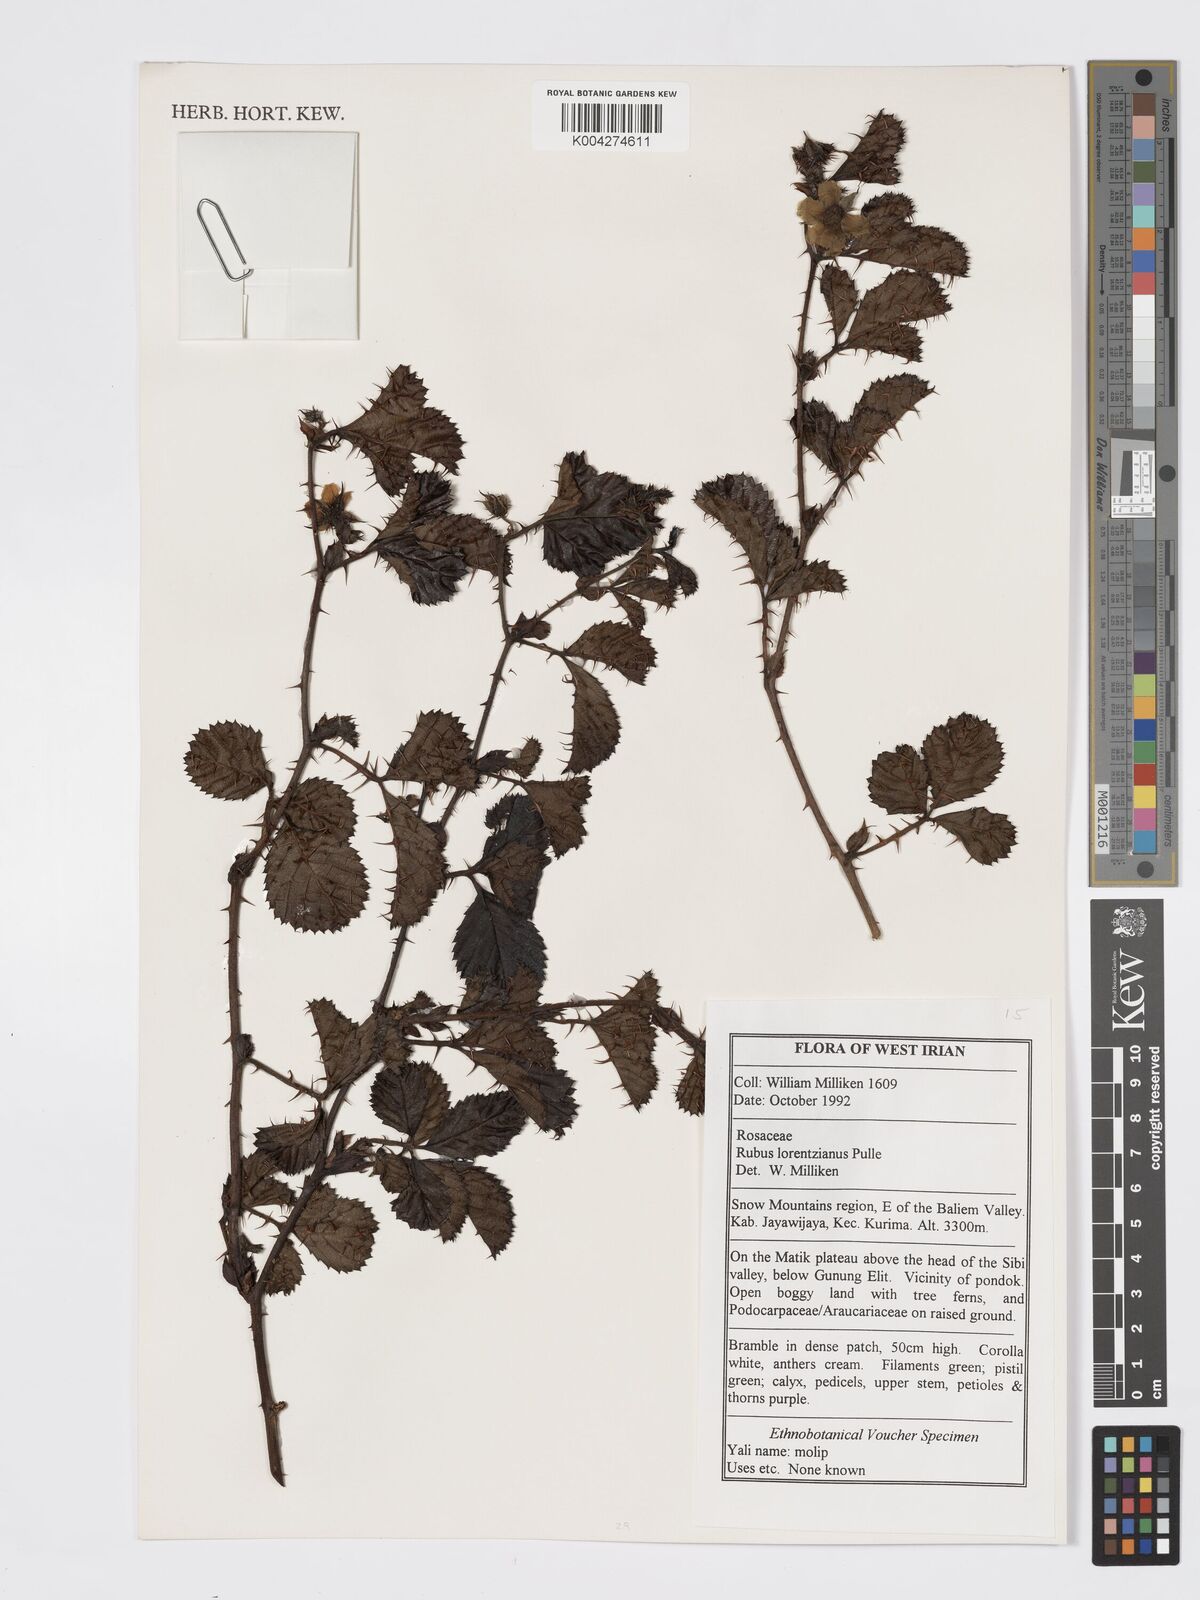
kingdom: Plantae
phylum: Tracheophyta
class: Magnoliopsida
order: Rosales
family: Rosaceae
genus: Rubus
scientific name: Rubus lorentzianus
